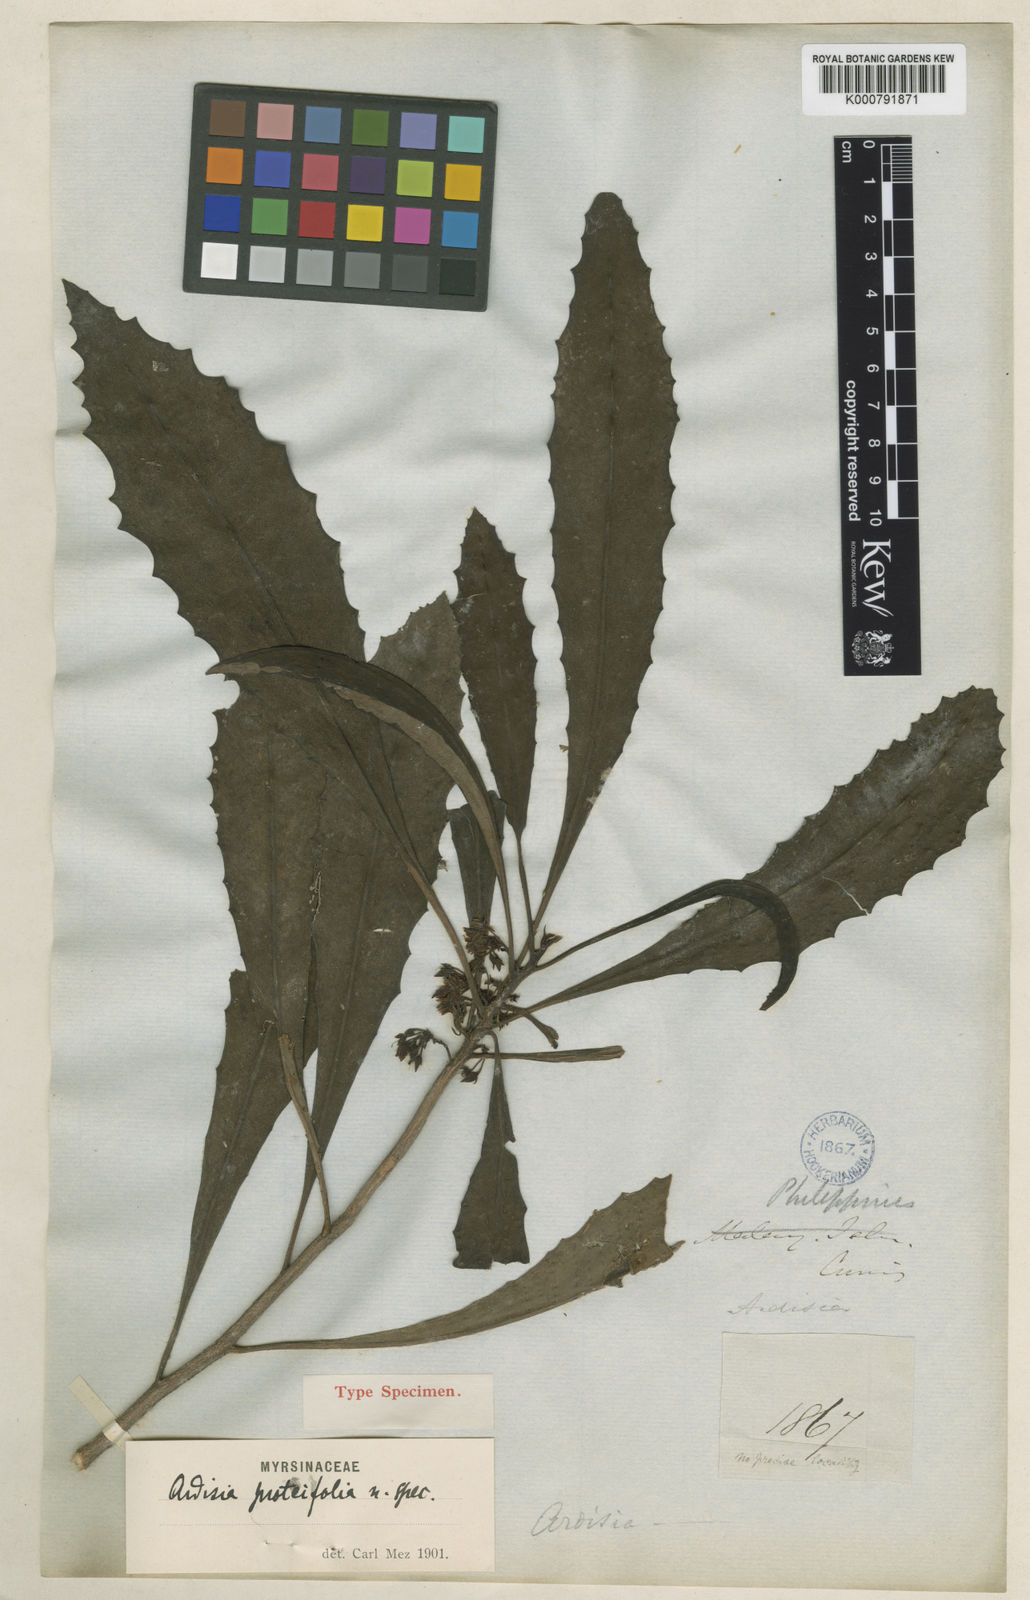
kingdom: Plantae
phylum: Tracheophyta
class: Magnoliopsida
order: Ericales
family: Primulaceae
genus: Ardisia
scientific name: Ardisia warburgiana
